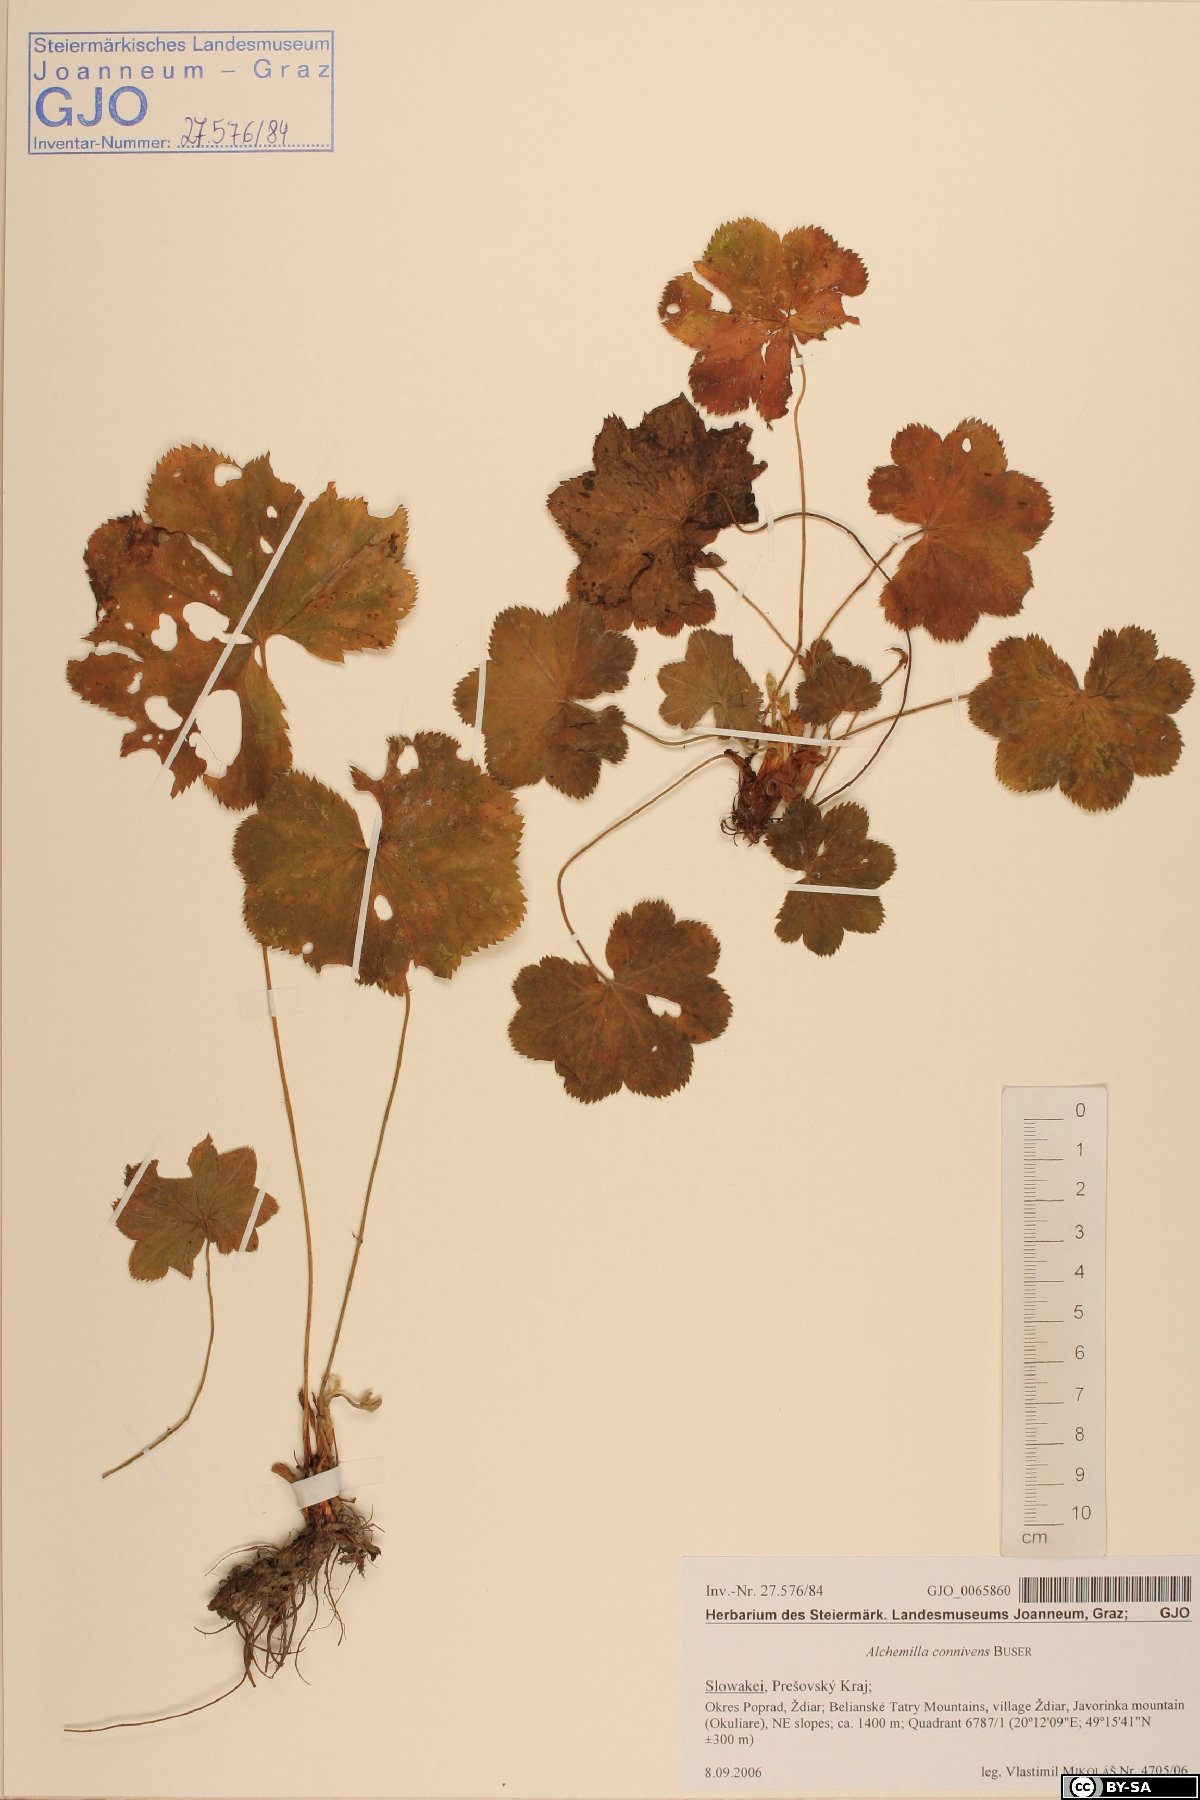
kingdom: Plantae
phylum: Tracheophyta
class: Magnoliopsida
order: Rosales
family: Rosaceae
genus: Alchemilla
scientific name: Alchemilla connivens
